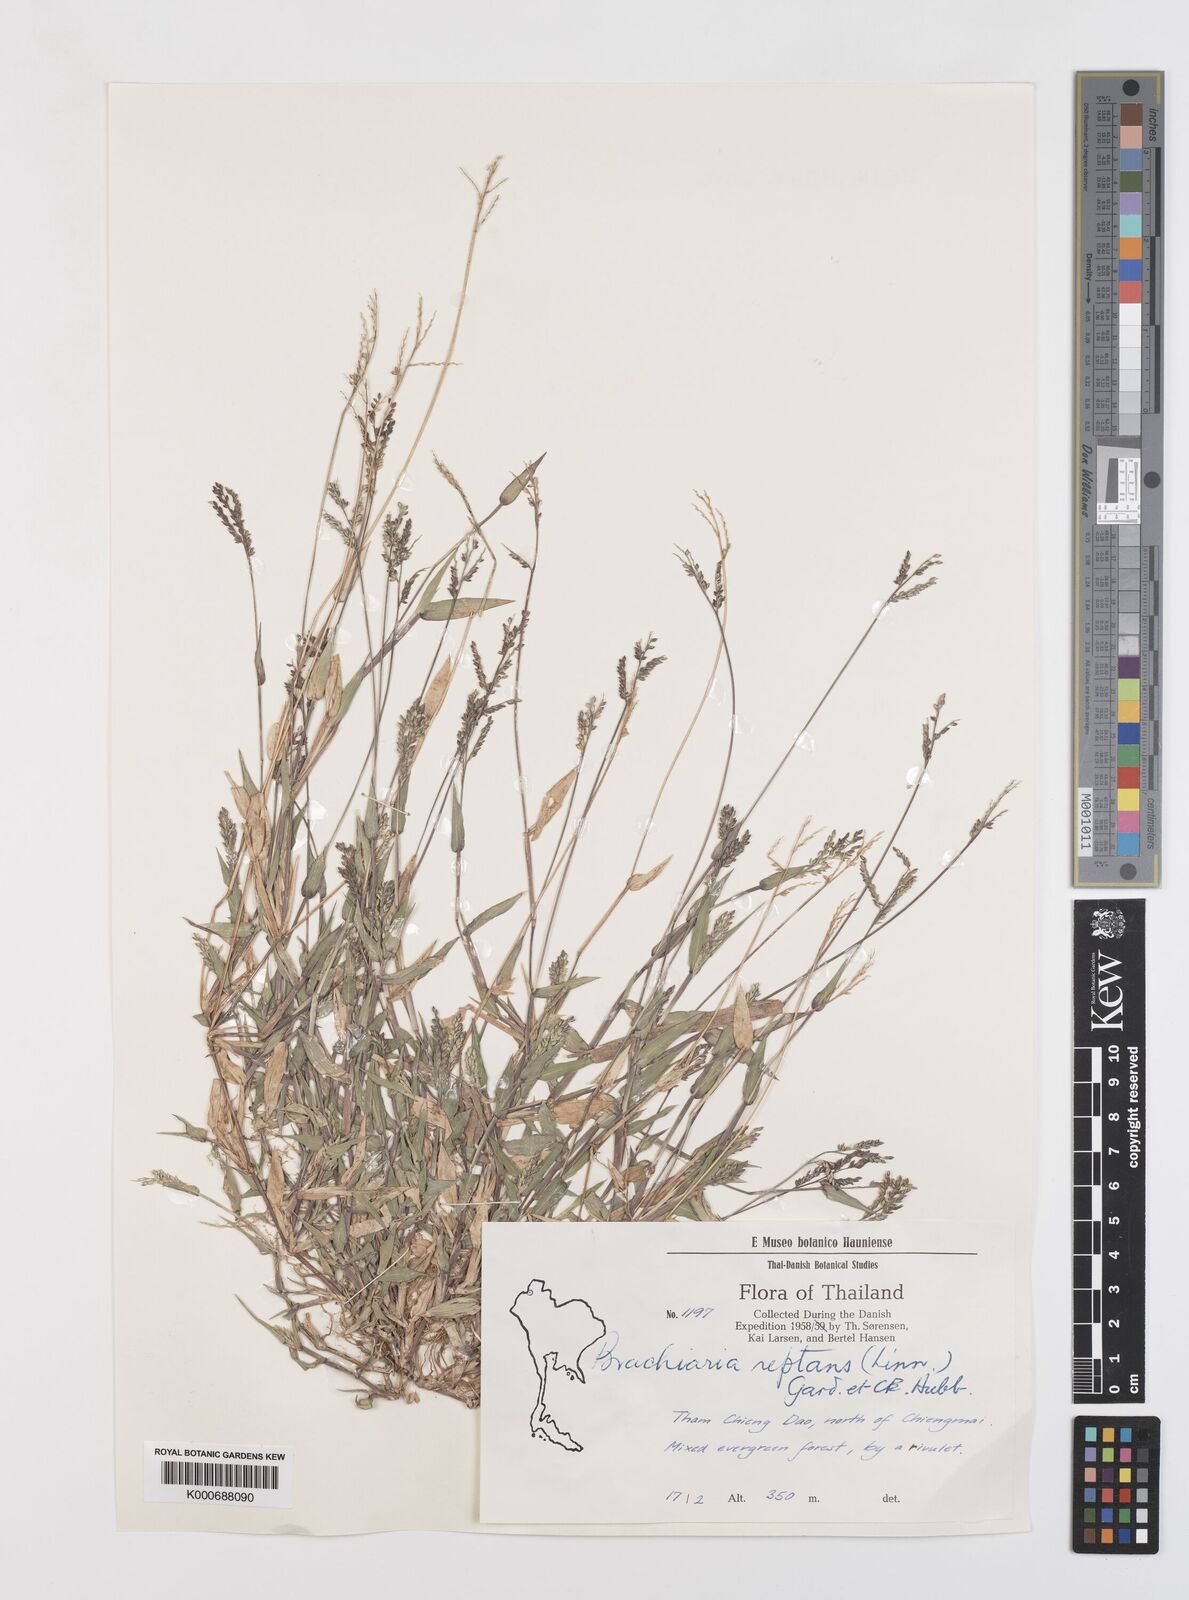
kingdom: Plantae
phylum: Tracheophyta
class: Liliopsida
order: Poales
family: Poaceae
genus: Urochloa
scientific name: Urochloa reptans
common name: Sprawling signalgrass
